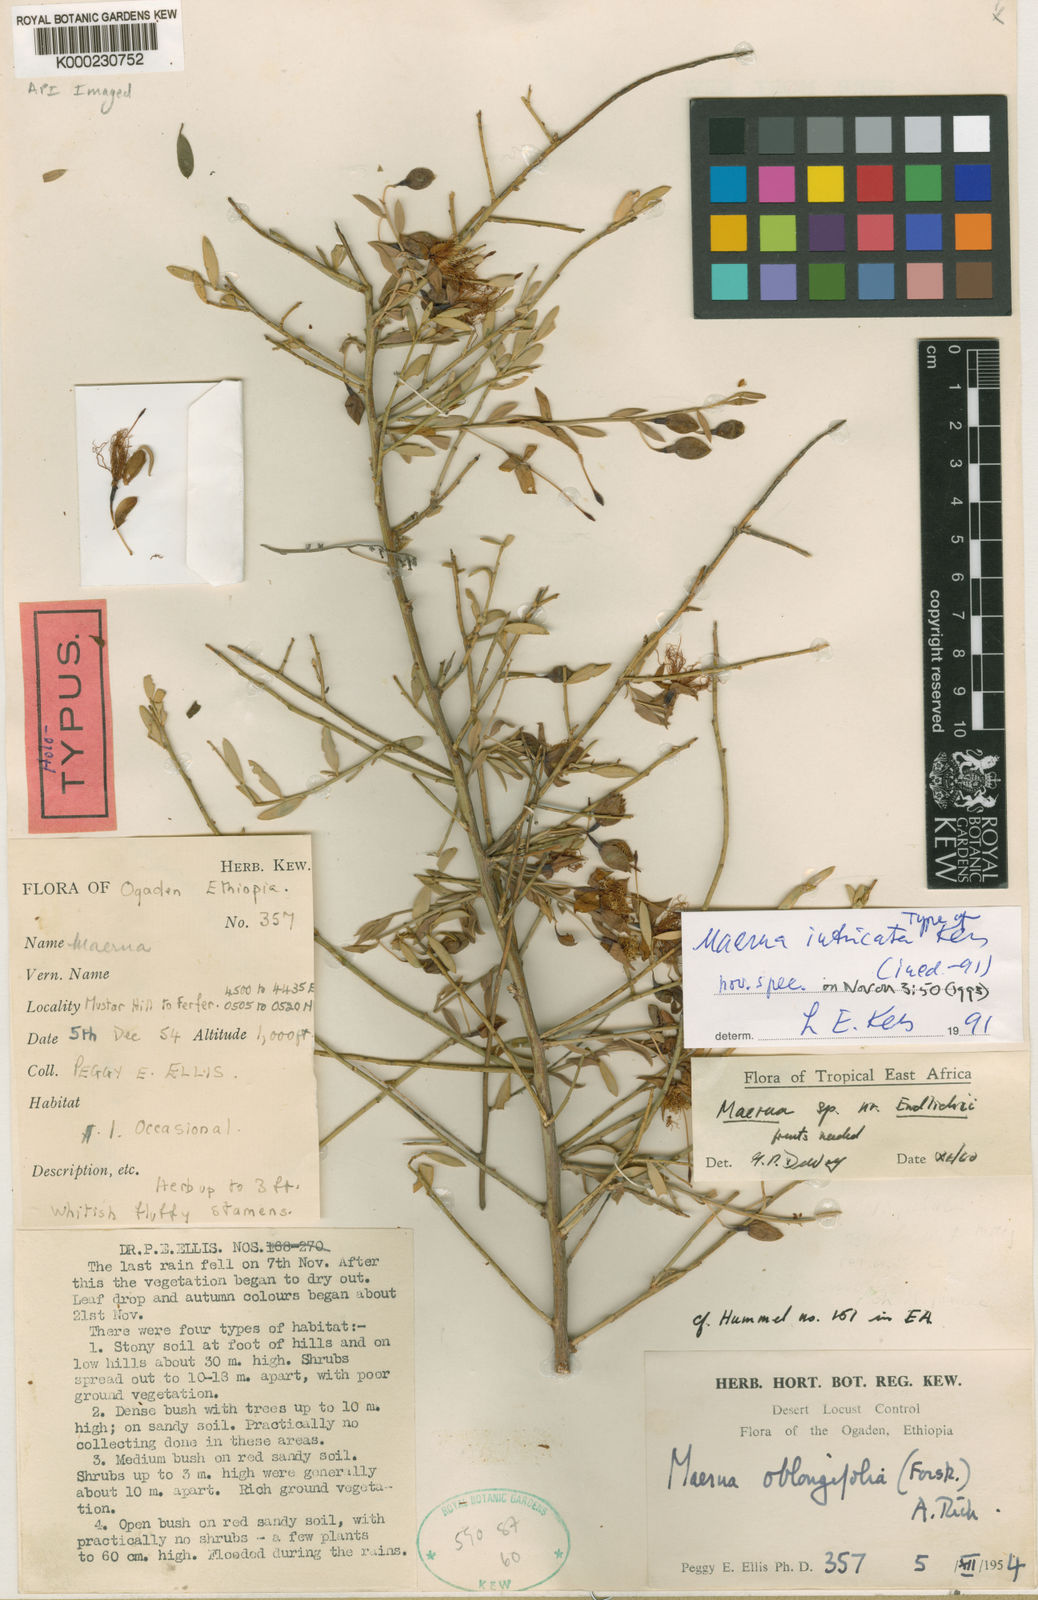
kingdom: Plantae
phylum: Tracheophyta
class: Magnoliopsida
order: Brassicales
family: Capparaceae
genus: Maerua
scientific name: Maerua intricata
